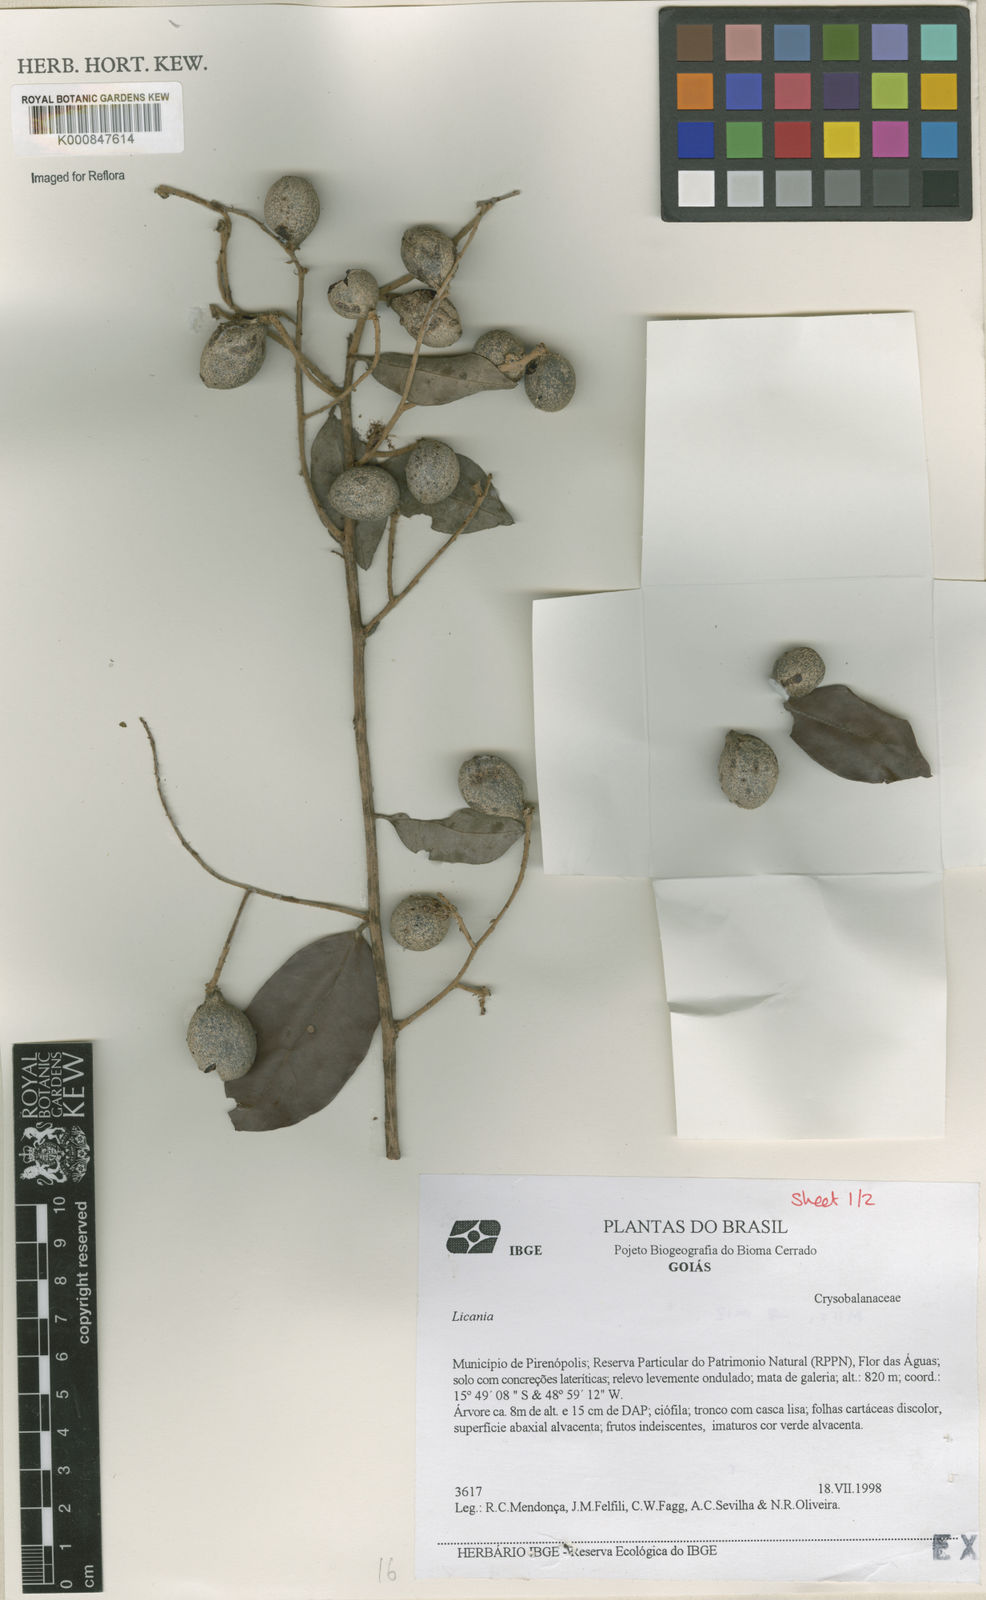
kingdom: Plantae
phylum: Tracheophyta
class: Magnoliopsida
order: Malpighiales
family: Chrysobalanaceae
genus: Moquilea
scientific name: Moquilea araneosa
